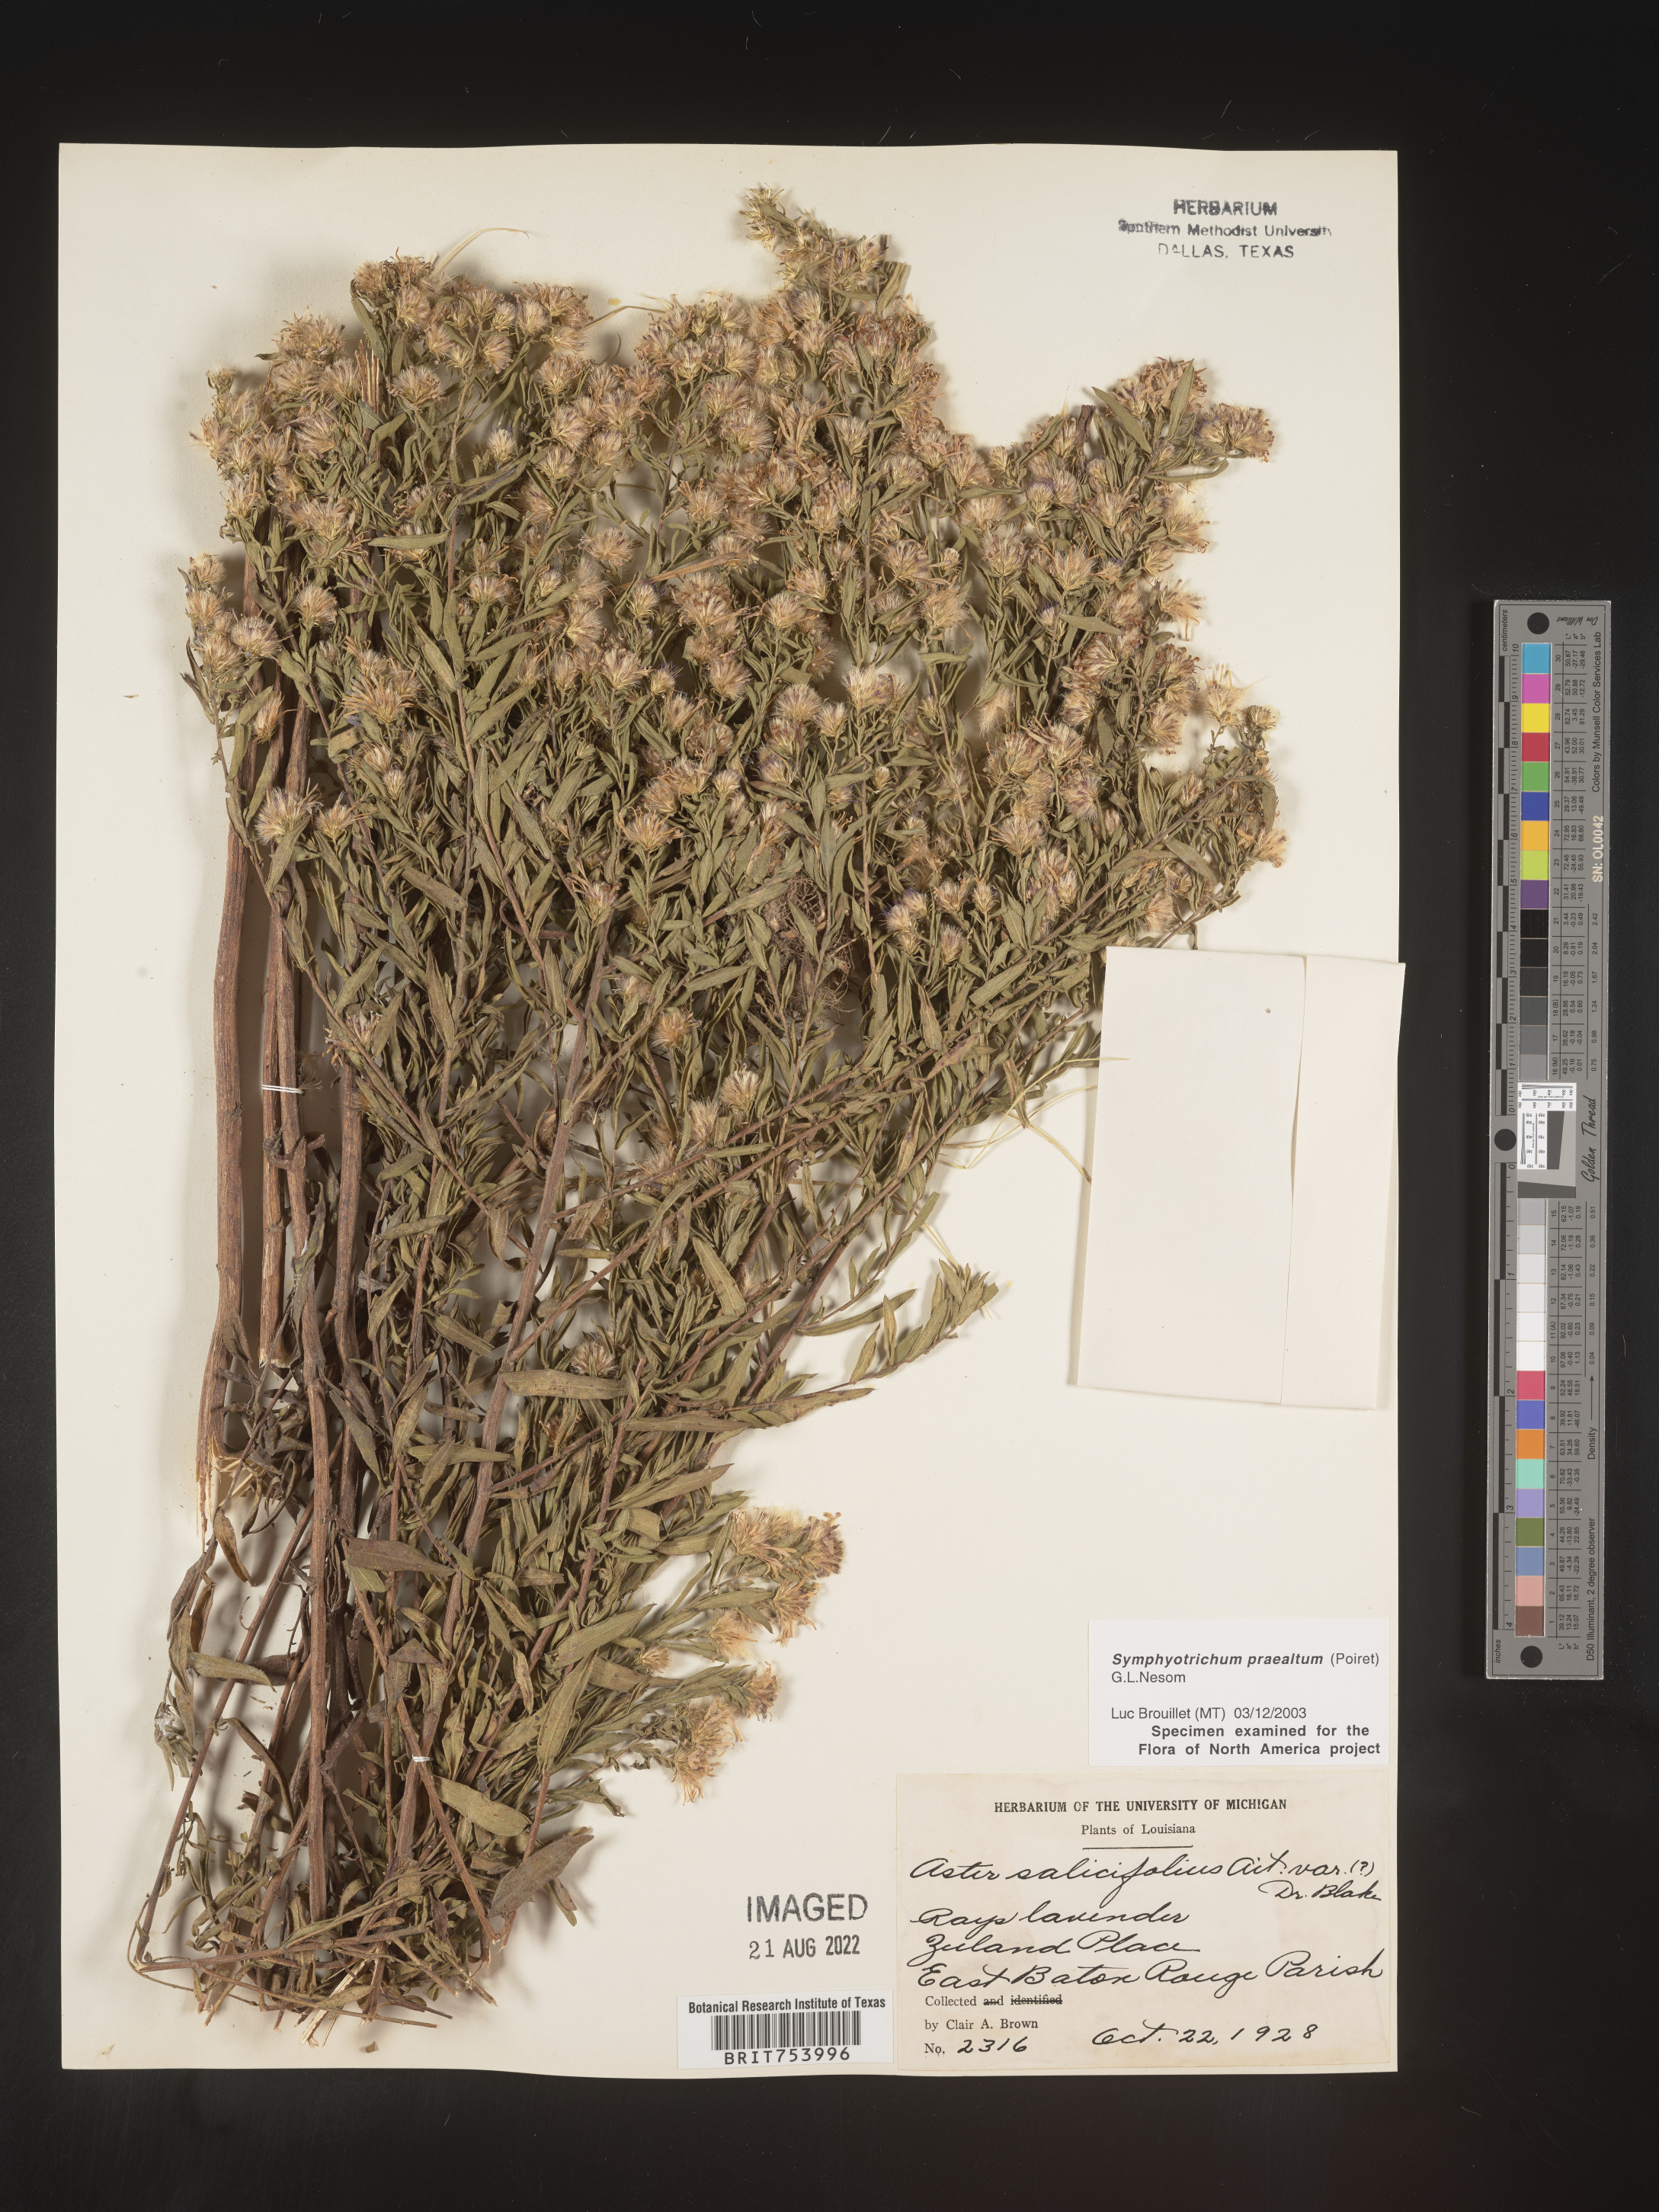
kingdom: Plantae
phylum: Tracheophyta
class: Magnoliopsida
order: Asterales
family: Asteraceae
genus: Symphyotrichum
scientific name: Symphyotrichum praealtum
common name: Willow aster
